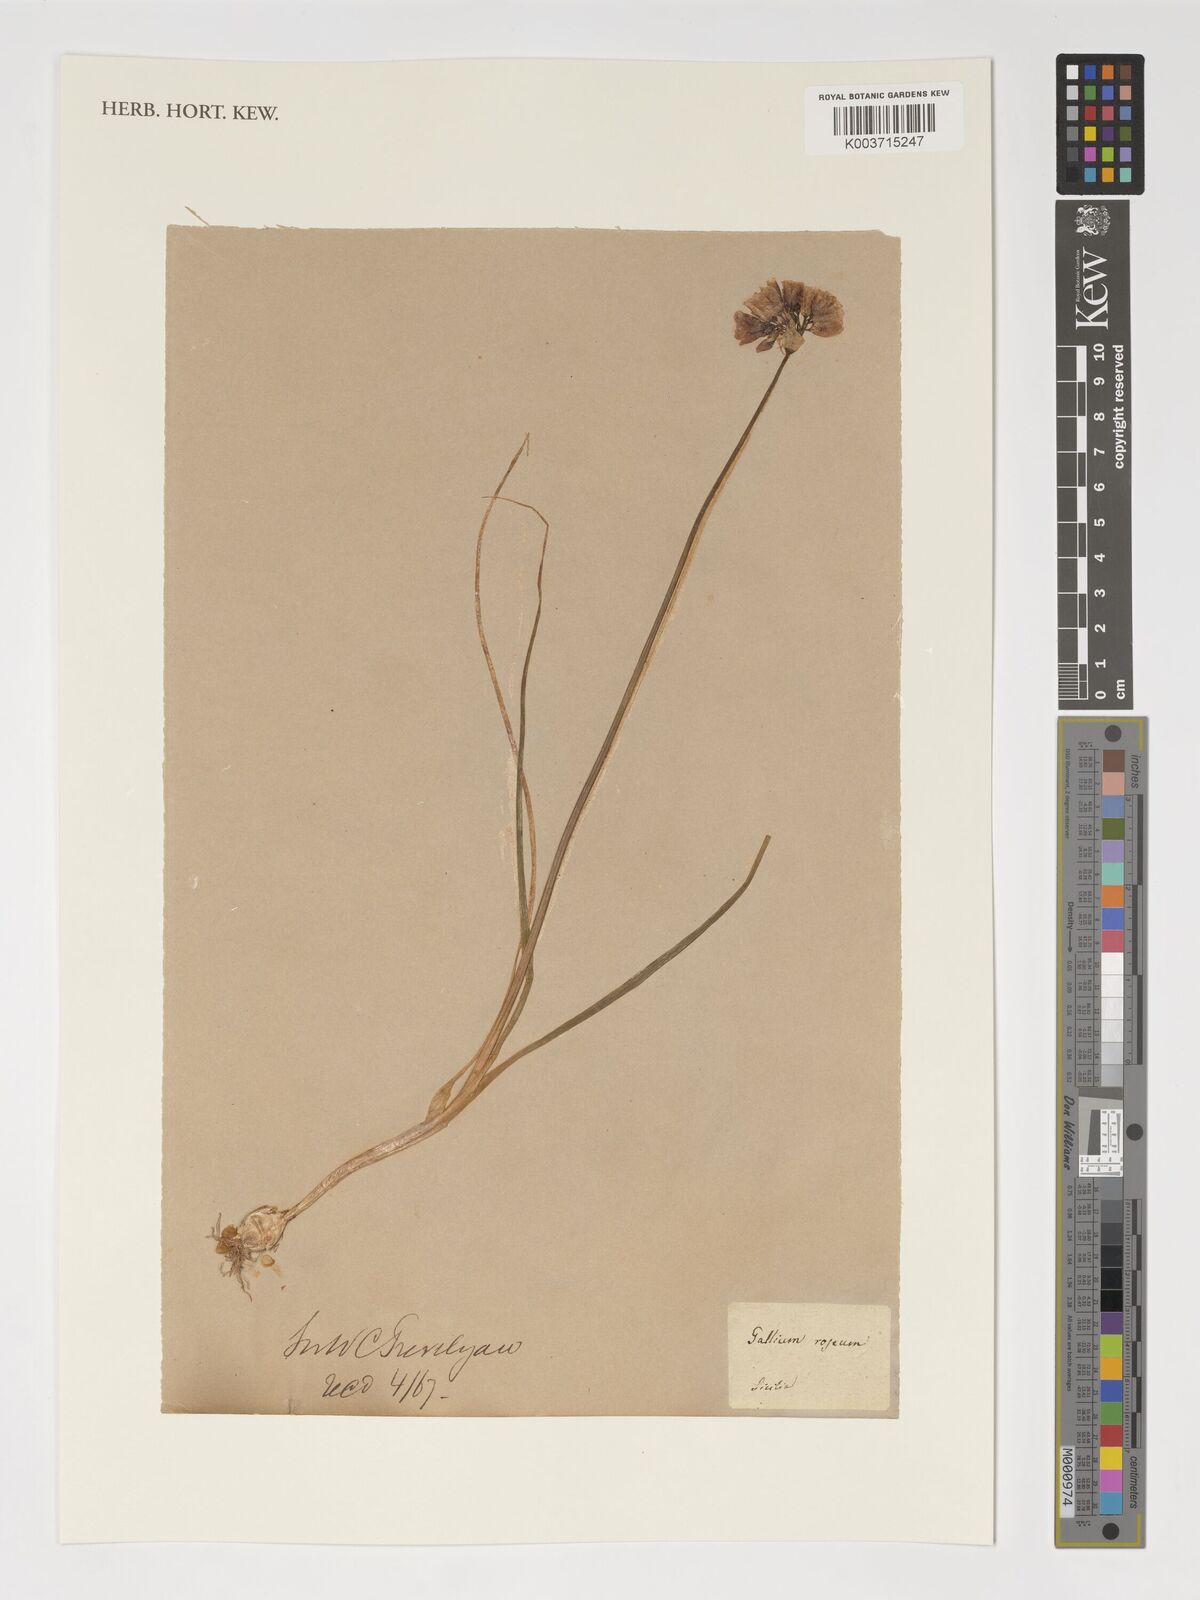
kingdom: Plantae
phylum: Tracheophyta
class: Magnoliopsida
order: Gentianales
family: Rubiaceae
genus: Galium
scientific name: Galium
